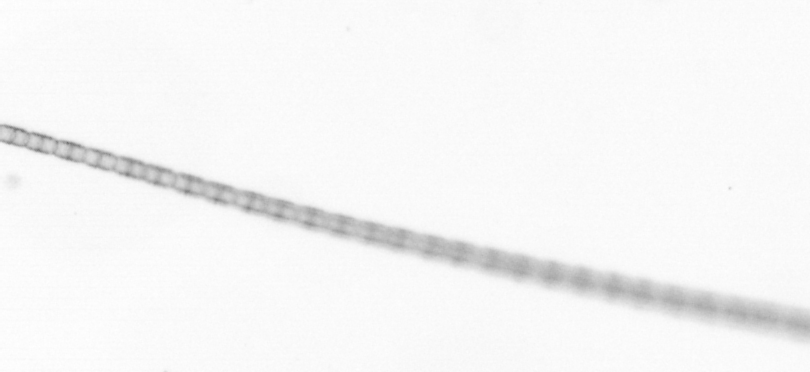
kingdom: Chromista
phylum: Ochrophyta
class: Bacillariophyceae
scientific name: Bacillariophyceae
